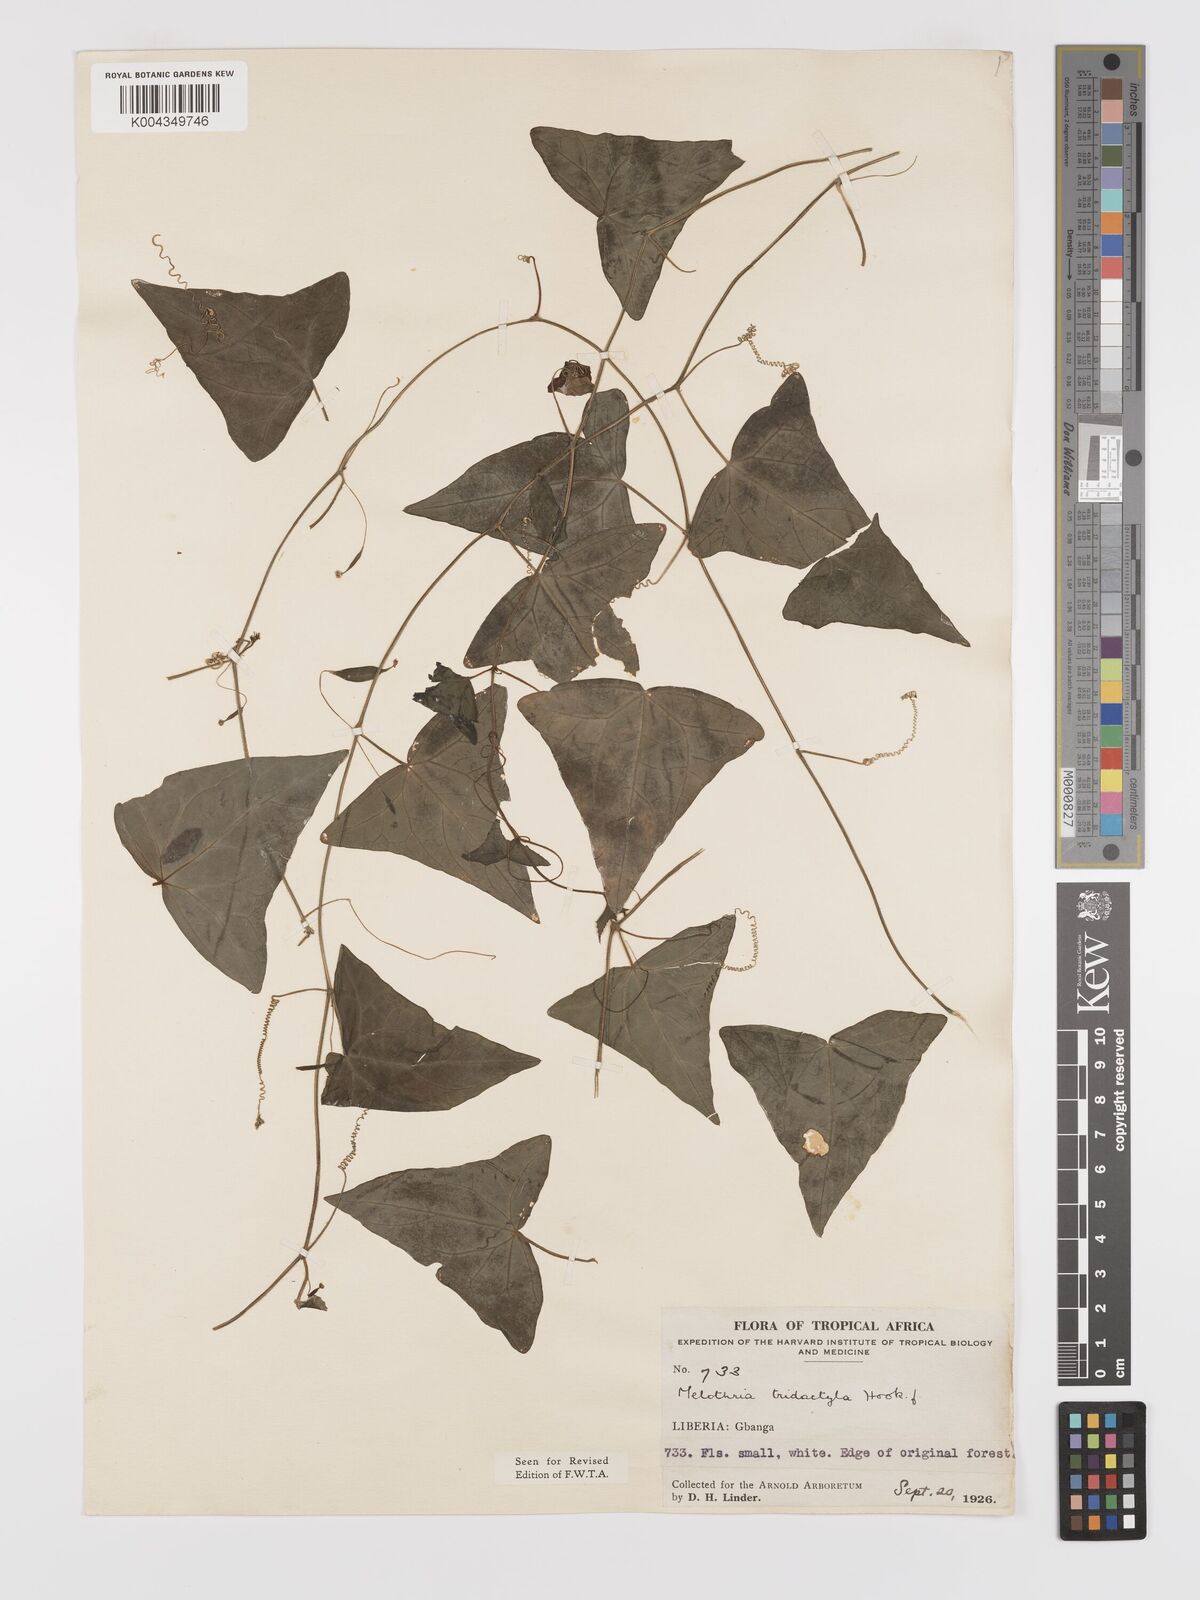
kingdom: Plantae
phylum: Tracheophyta
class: Magnoliopsida
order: Cucurbitales
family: Cucurbitaceae
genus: Zehneria
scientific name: Zehneria thwaitesii
